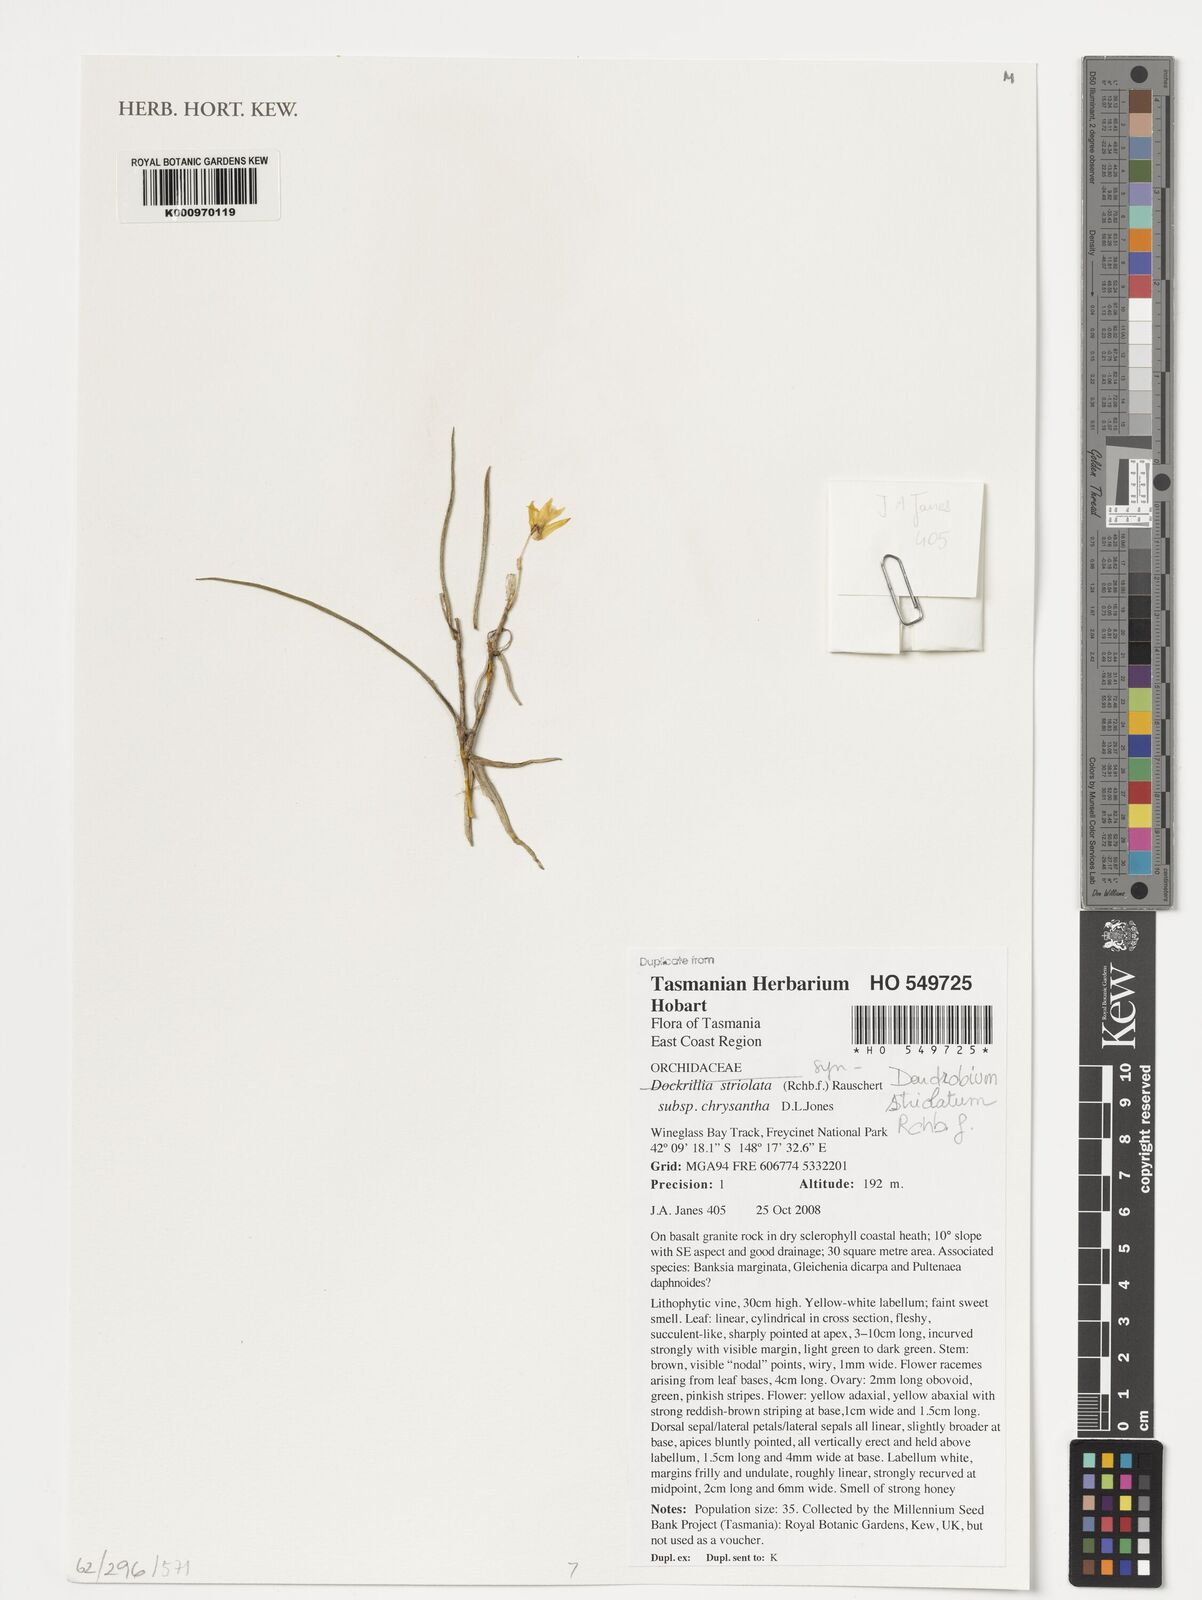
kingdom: Plantae
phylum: Tracheophyta
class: Liliopsida
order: Asparagales
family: Orchidaceae
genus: Dendrobium
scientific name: Dendrobium striolatum
